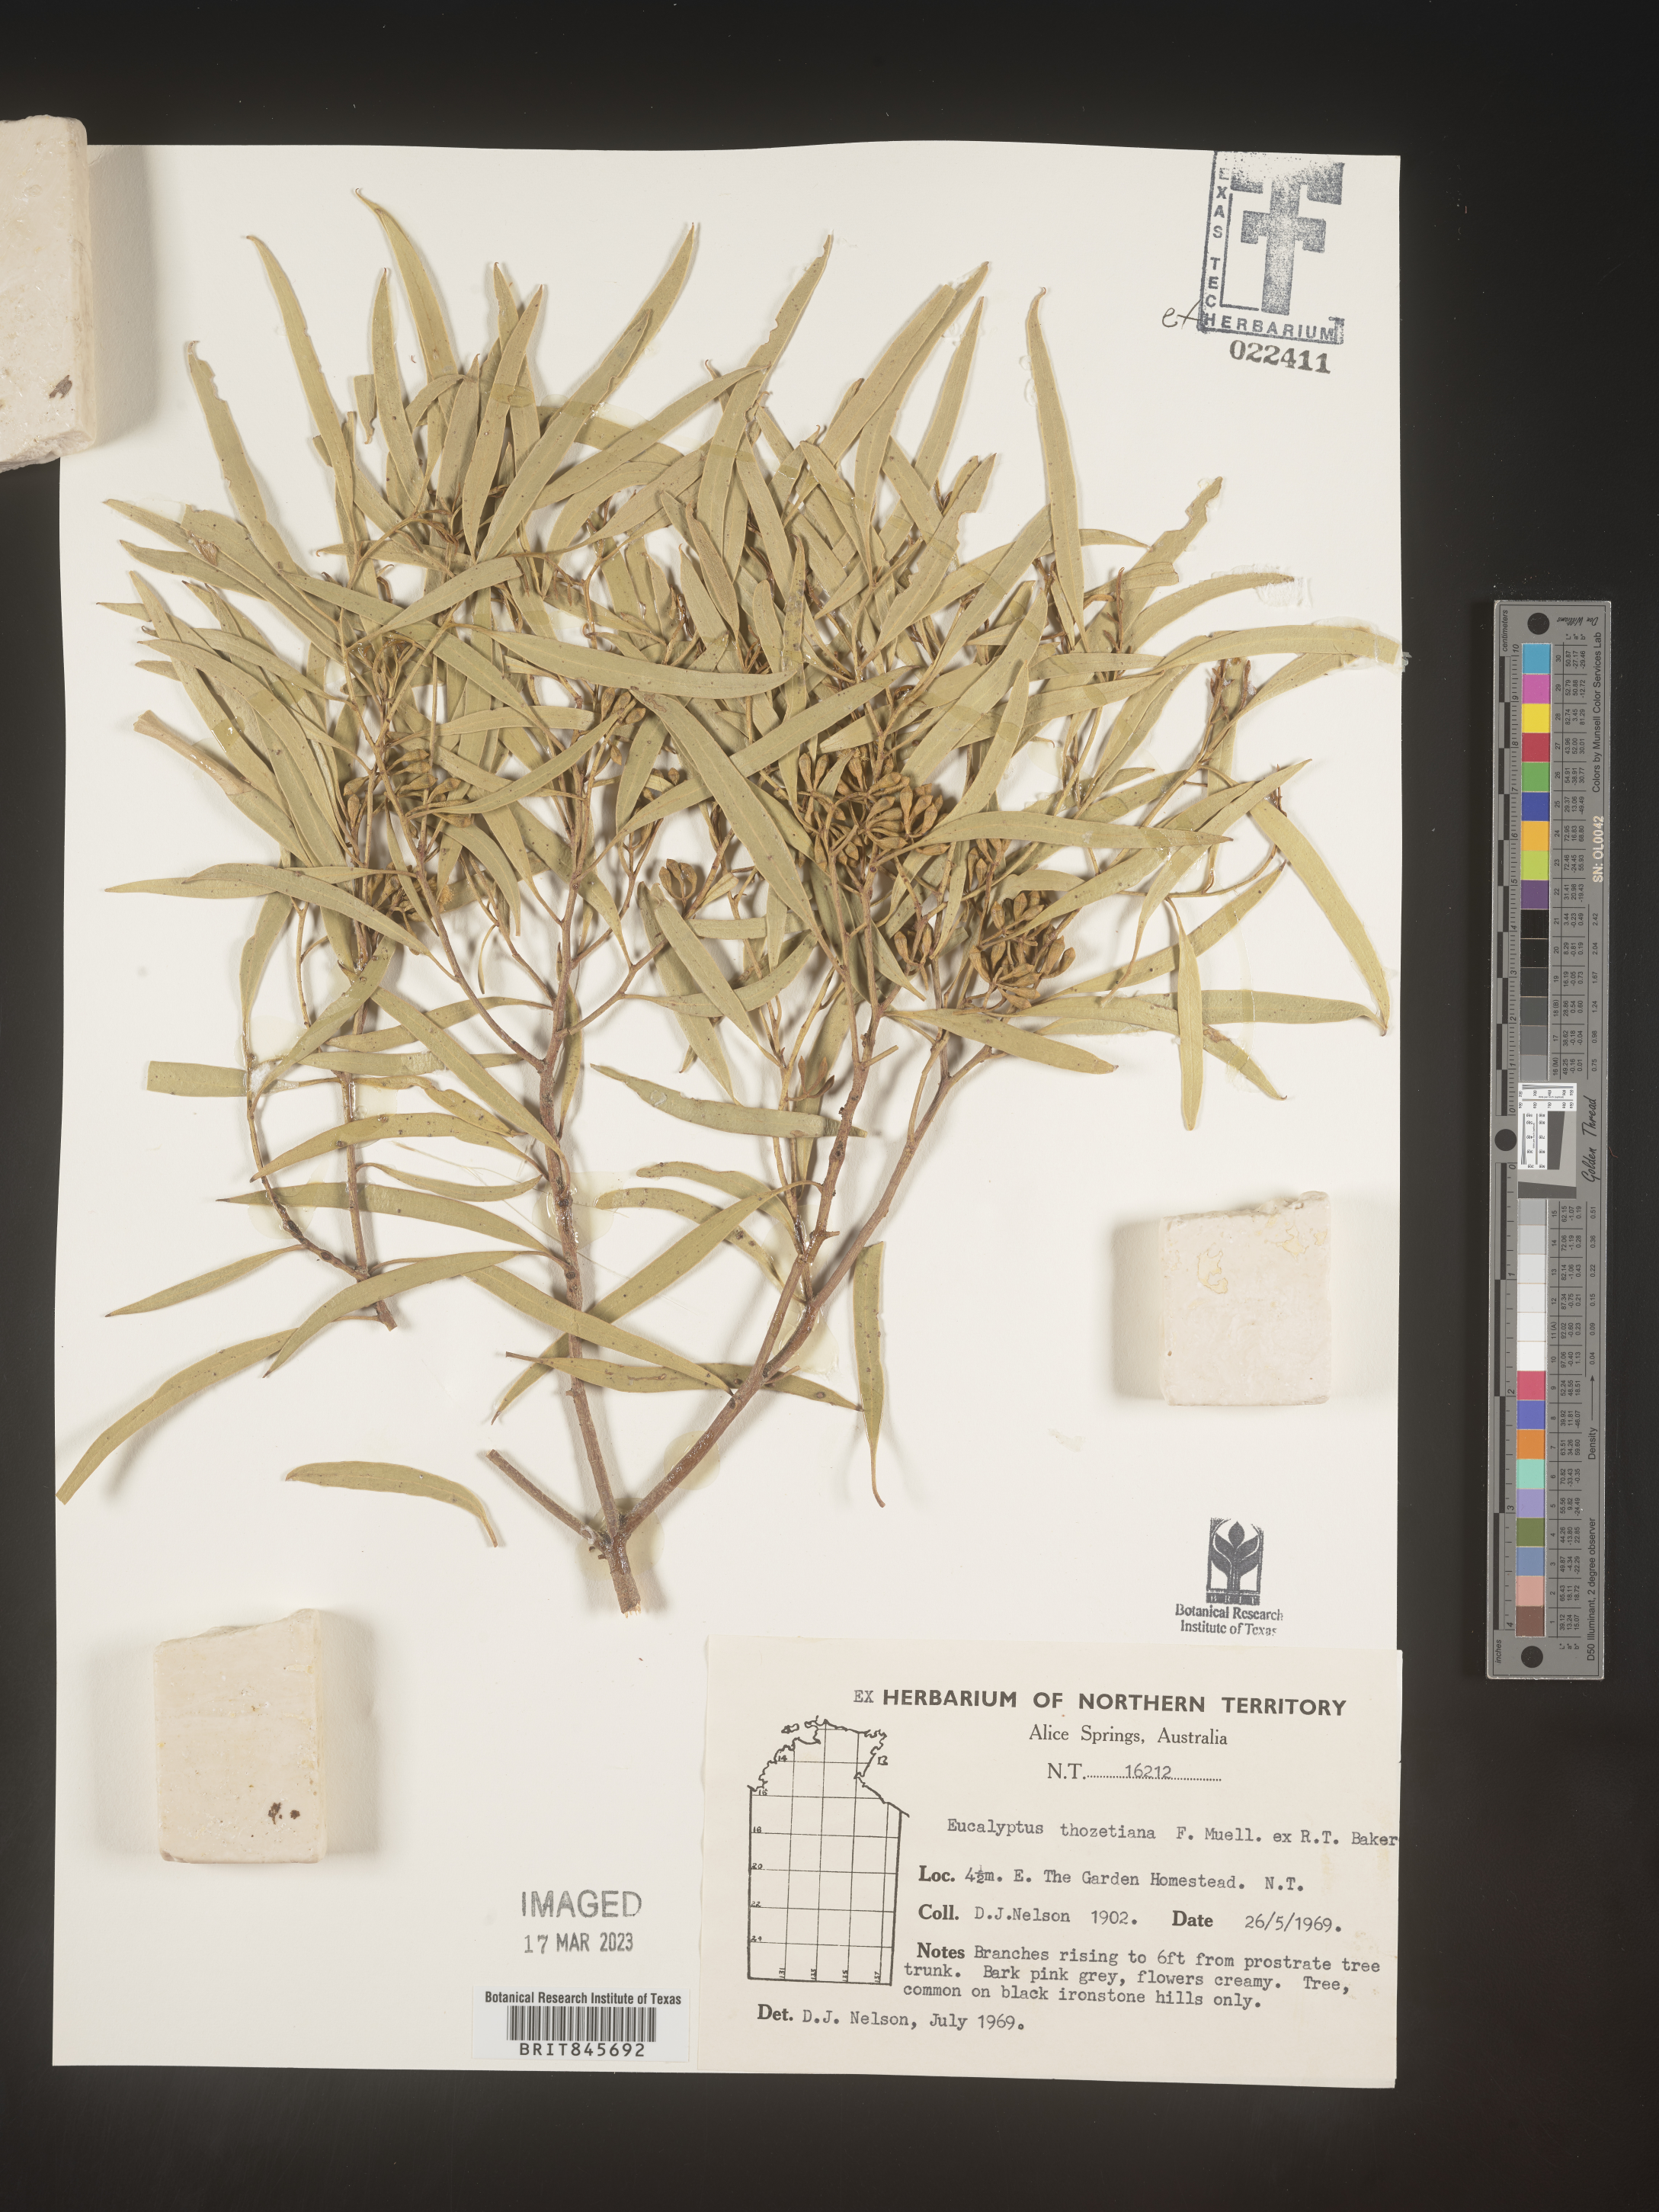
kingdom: Plantae
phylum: Tracheophyta
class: Magnoliopsida
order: Myrtales
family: Myrtaceae
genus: Eucalyptus
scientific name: Eucalyptus
